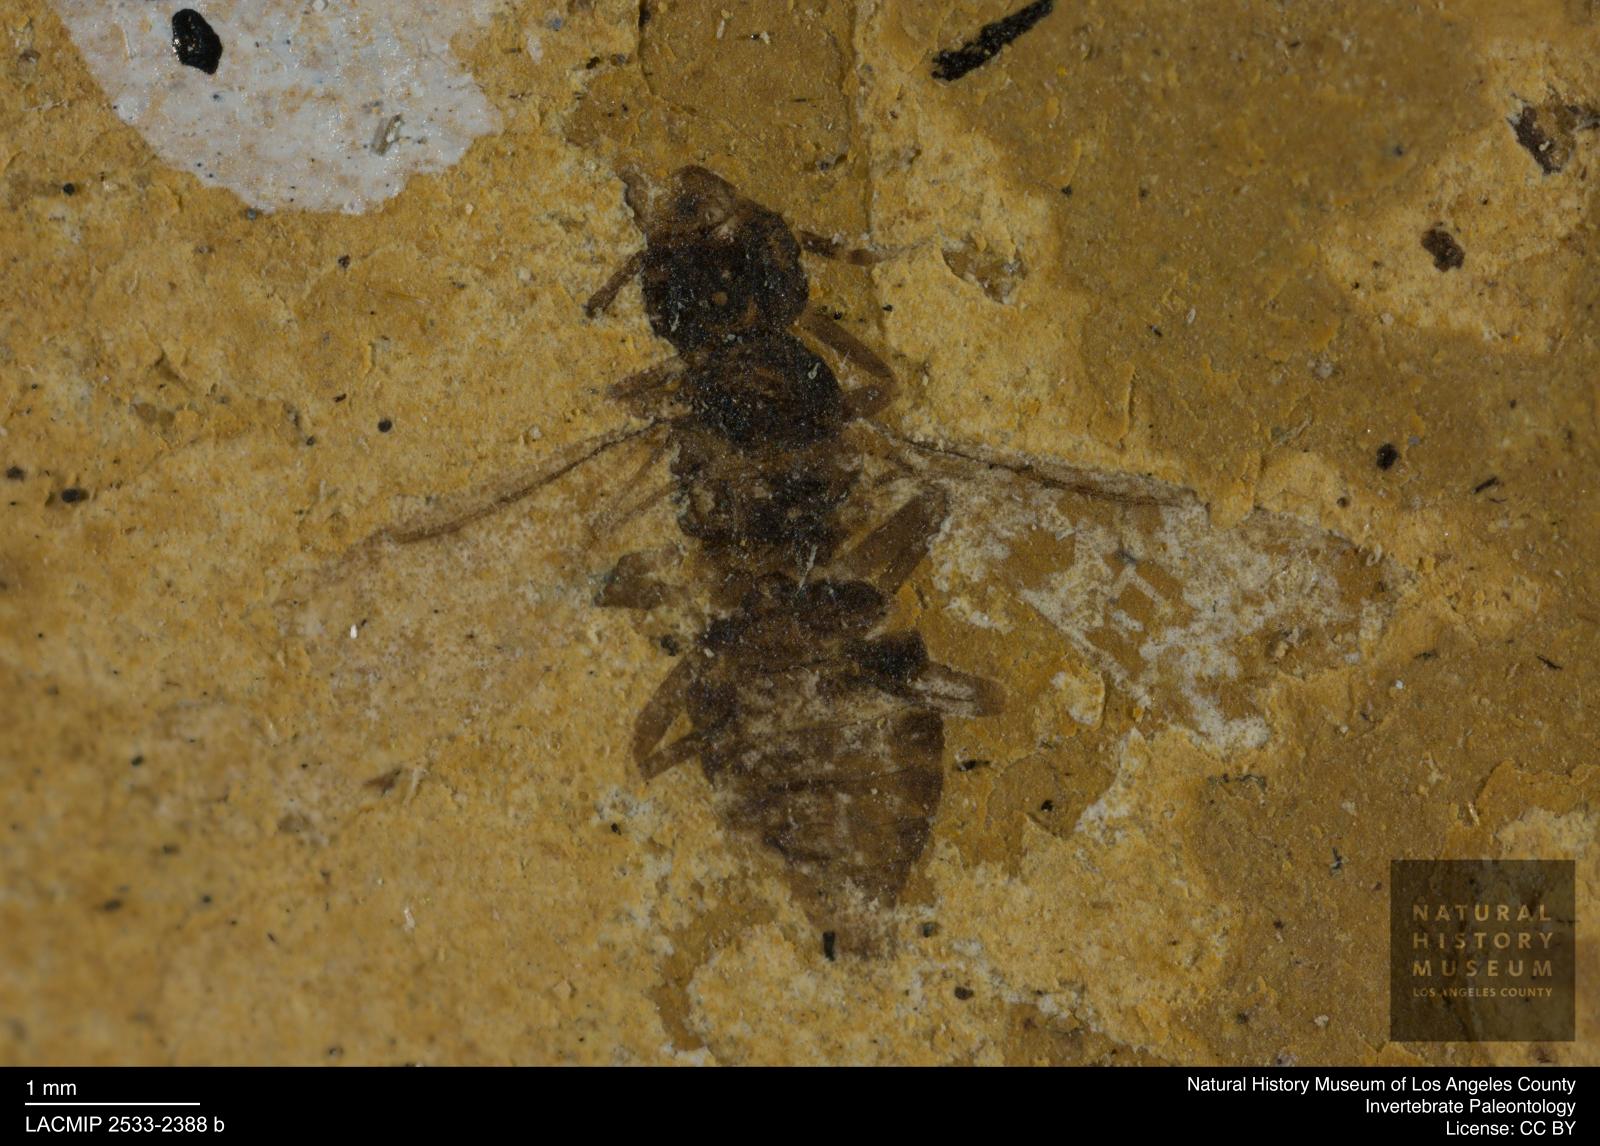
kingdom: Animalia
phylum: Arthropoda
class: Insecta
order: Hymenoptera
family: Formicidae
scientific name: Formicidae
